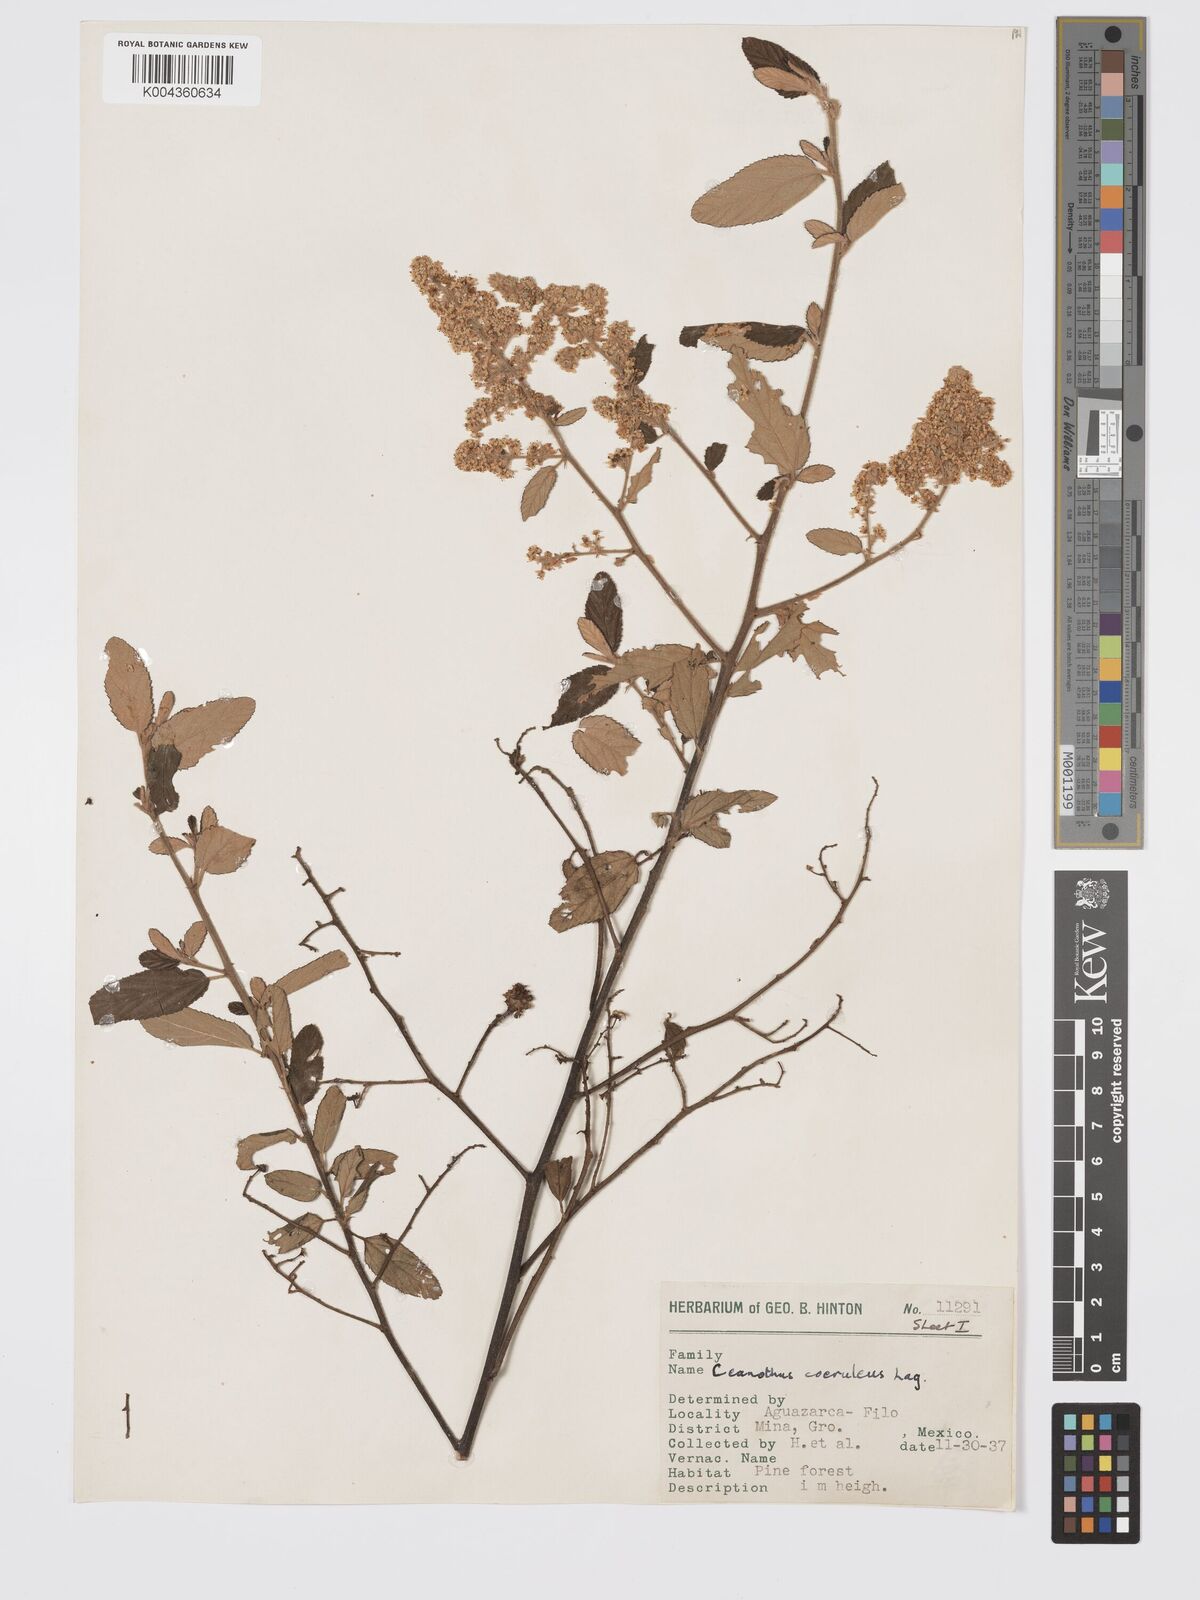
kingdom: Plantae
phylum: Tracheophyta
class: Magnoliopsida
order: Rosales
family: Rhamnaceae
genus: Ceanothus
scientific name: Ceanothus caeruleus
